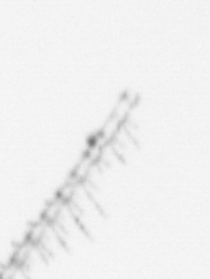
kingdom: Chromista
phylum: Ochrophyta
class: Bacillariophyceae
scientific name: Bacillariophyceae
